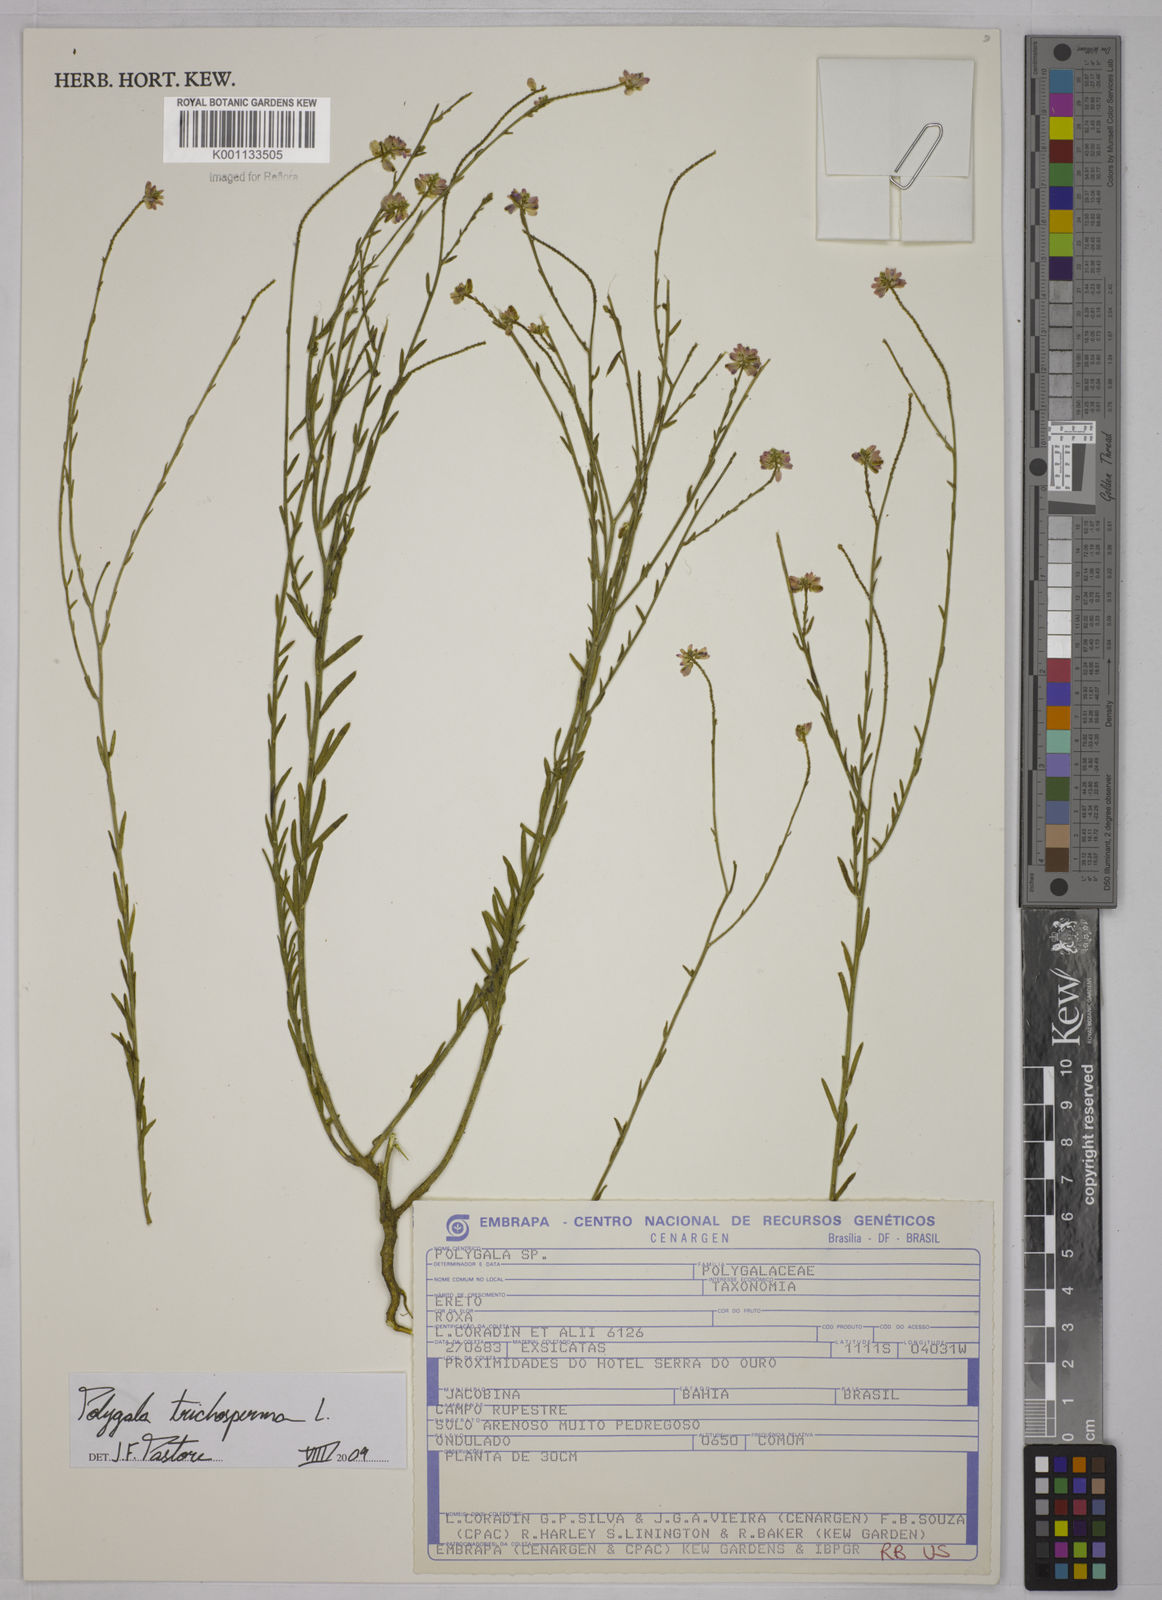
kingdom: Plantae
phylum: Tracheophyta
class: Magnoliopsida
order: Fabales
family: Polygalaceae
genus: Polygala
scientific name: Polygala trichosperma
